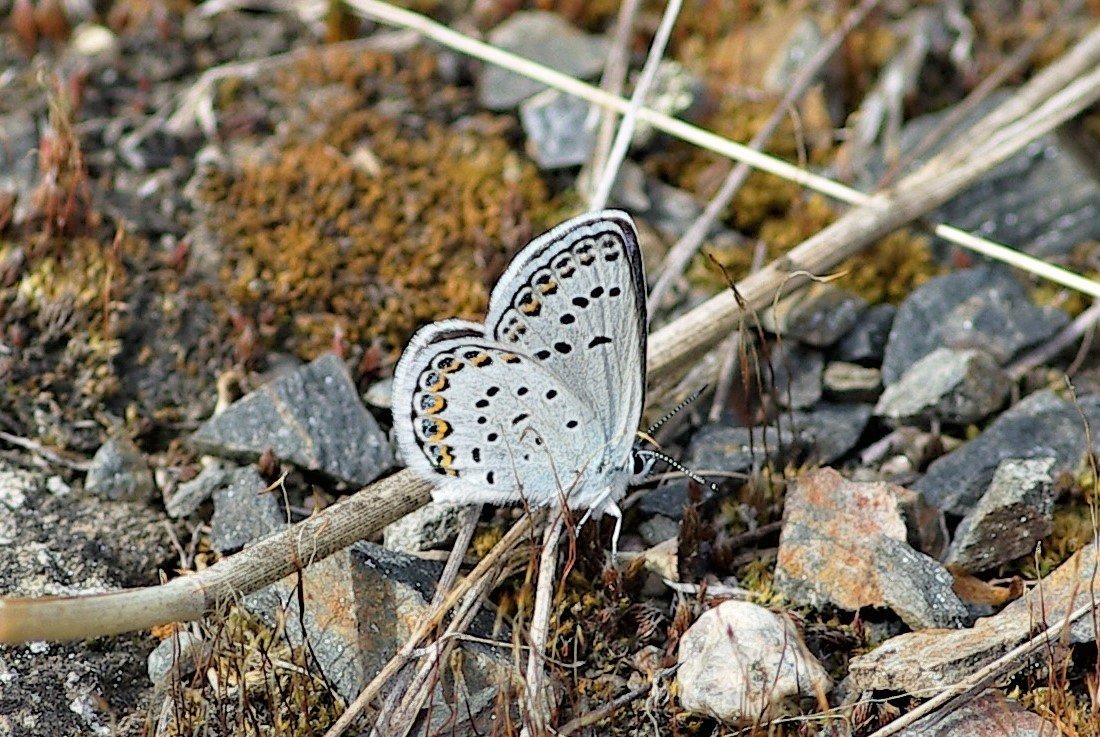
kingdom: Animalia
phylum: Arthropoda
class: Insecta
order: Lepidoptera
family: Lycaenidae
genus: Lycaeides
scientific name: Lycaeides idas
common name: Northern Blue
